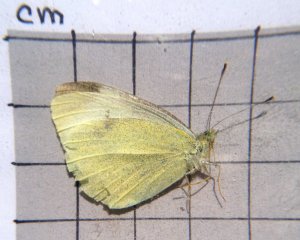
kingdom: Animalia
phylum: Arthropoda
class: Insecta
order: Lepidoptera
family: Pieridae
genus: Pieris
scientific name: Pieris rapae
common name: Cabbage White
